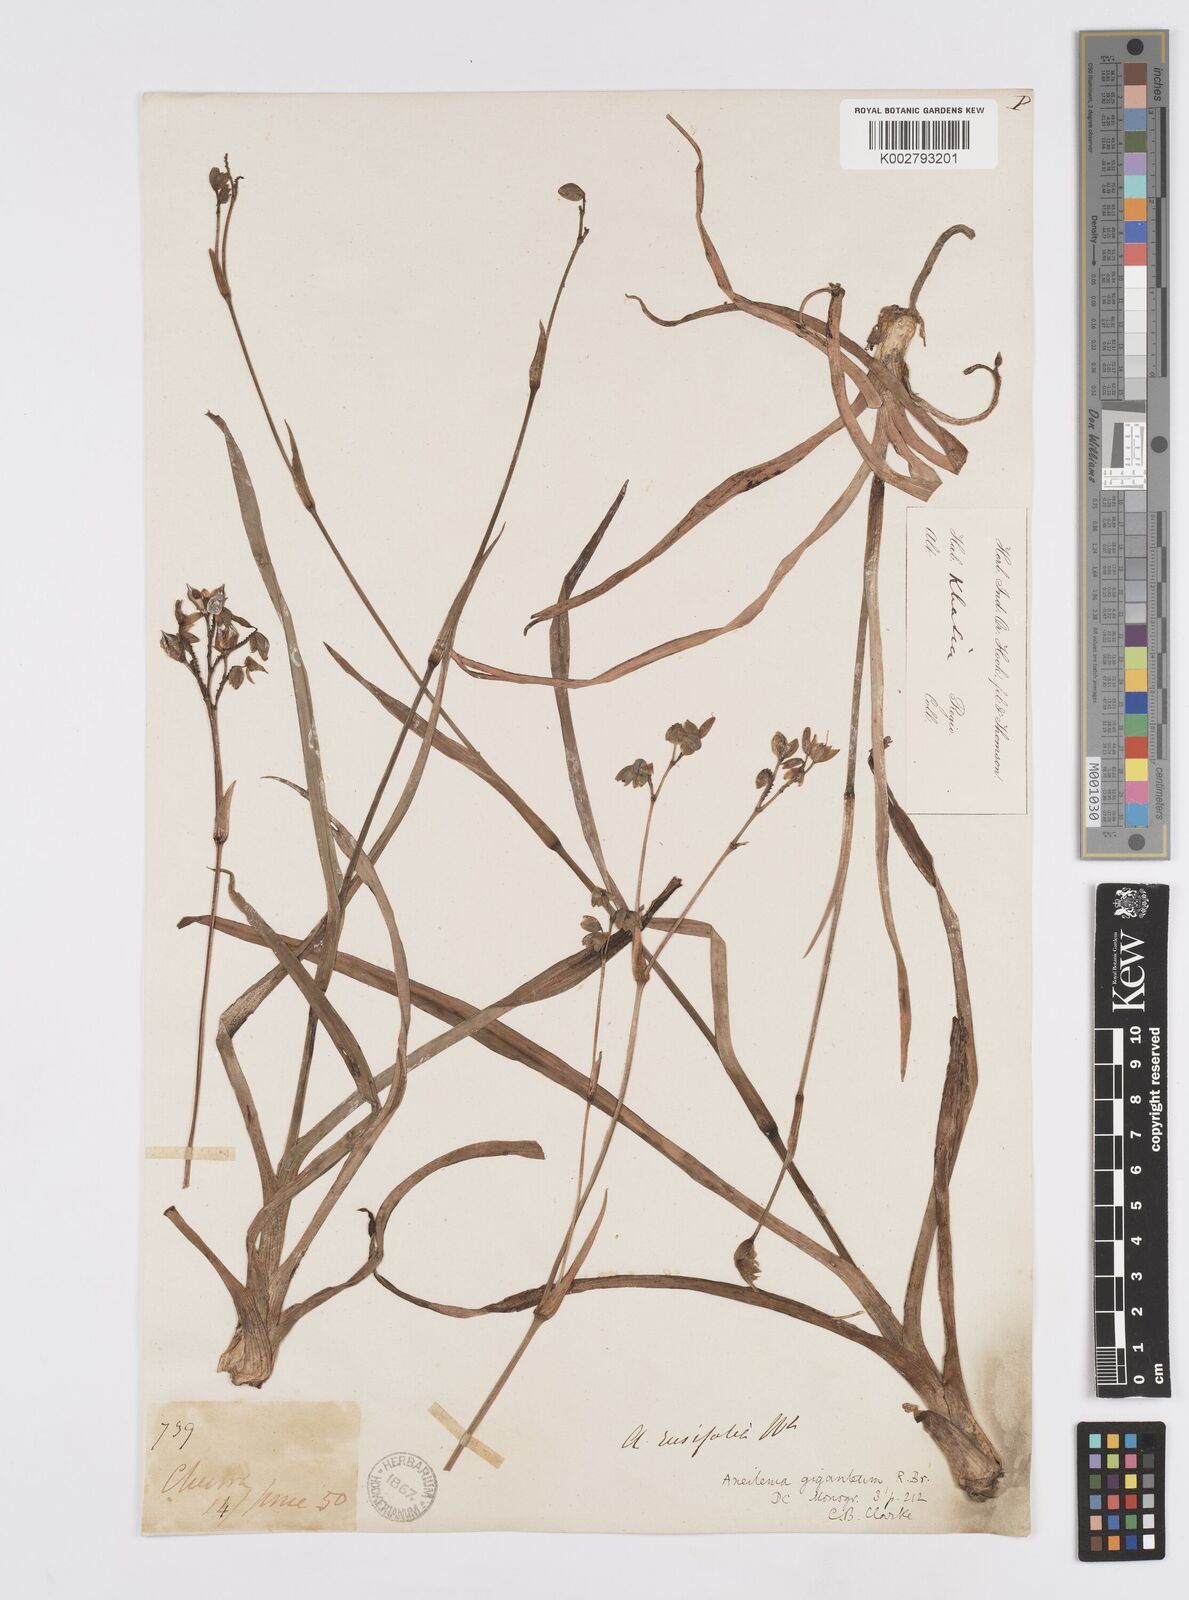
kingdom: Plantae
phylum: Tracheophyta
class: Liliopsida
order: Commelinales
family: Commelinaceae
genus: Murdannia
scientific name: Murdannia simplex
